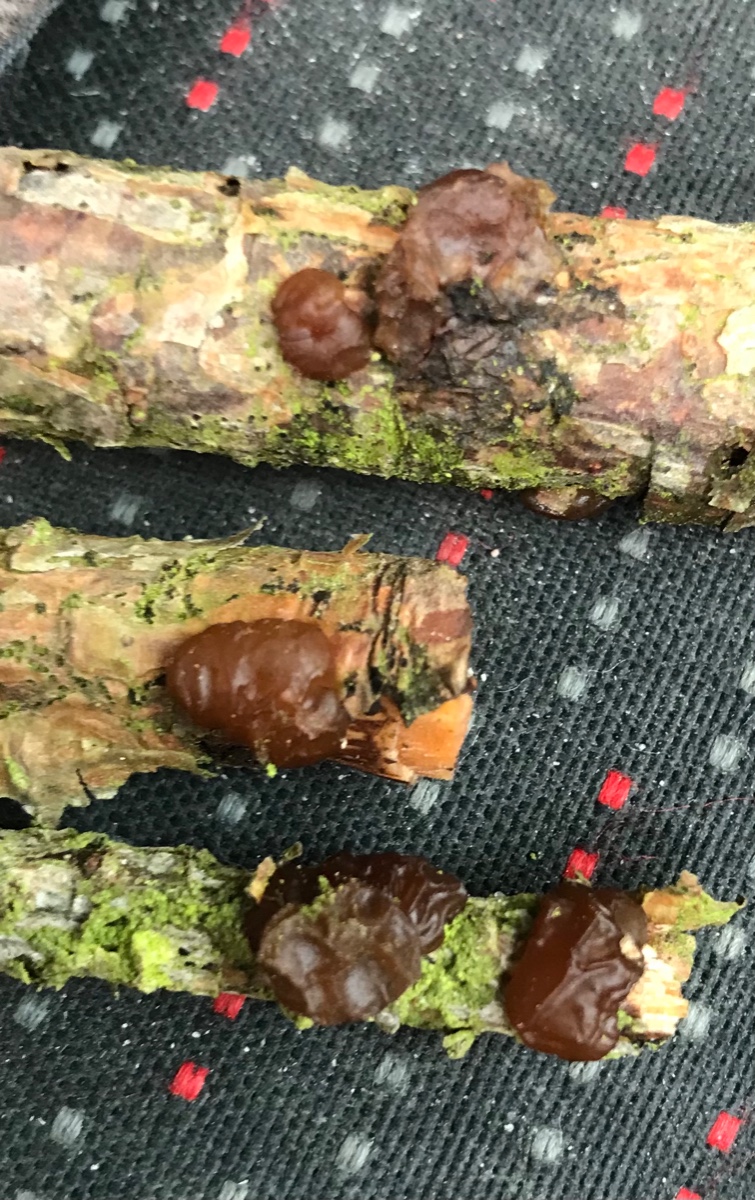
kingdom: Fungi
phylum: Basidiomycota
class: Agaricomycetes
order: Auriculariales
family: Auriculariaceae
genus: Exidia
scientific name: Exidia saccharina
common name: kandis-bævretop
